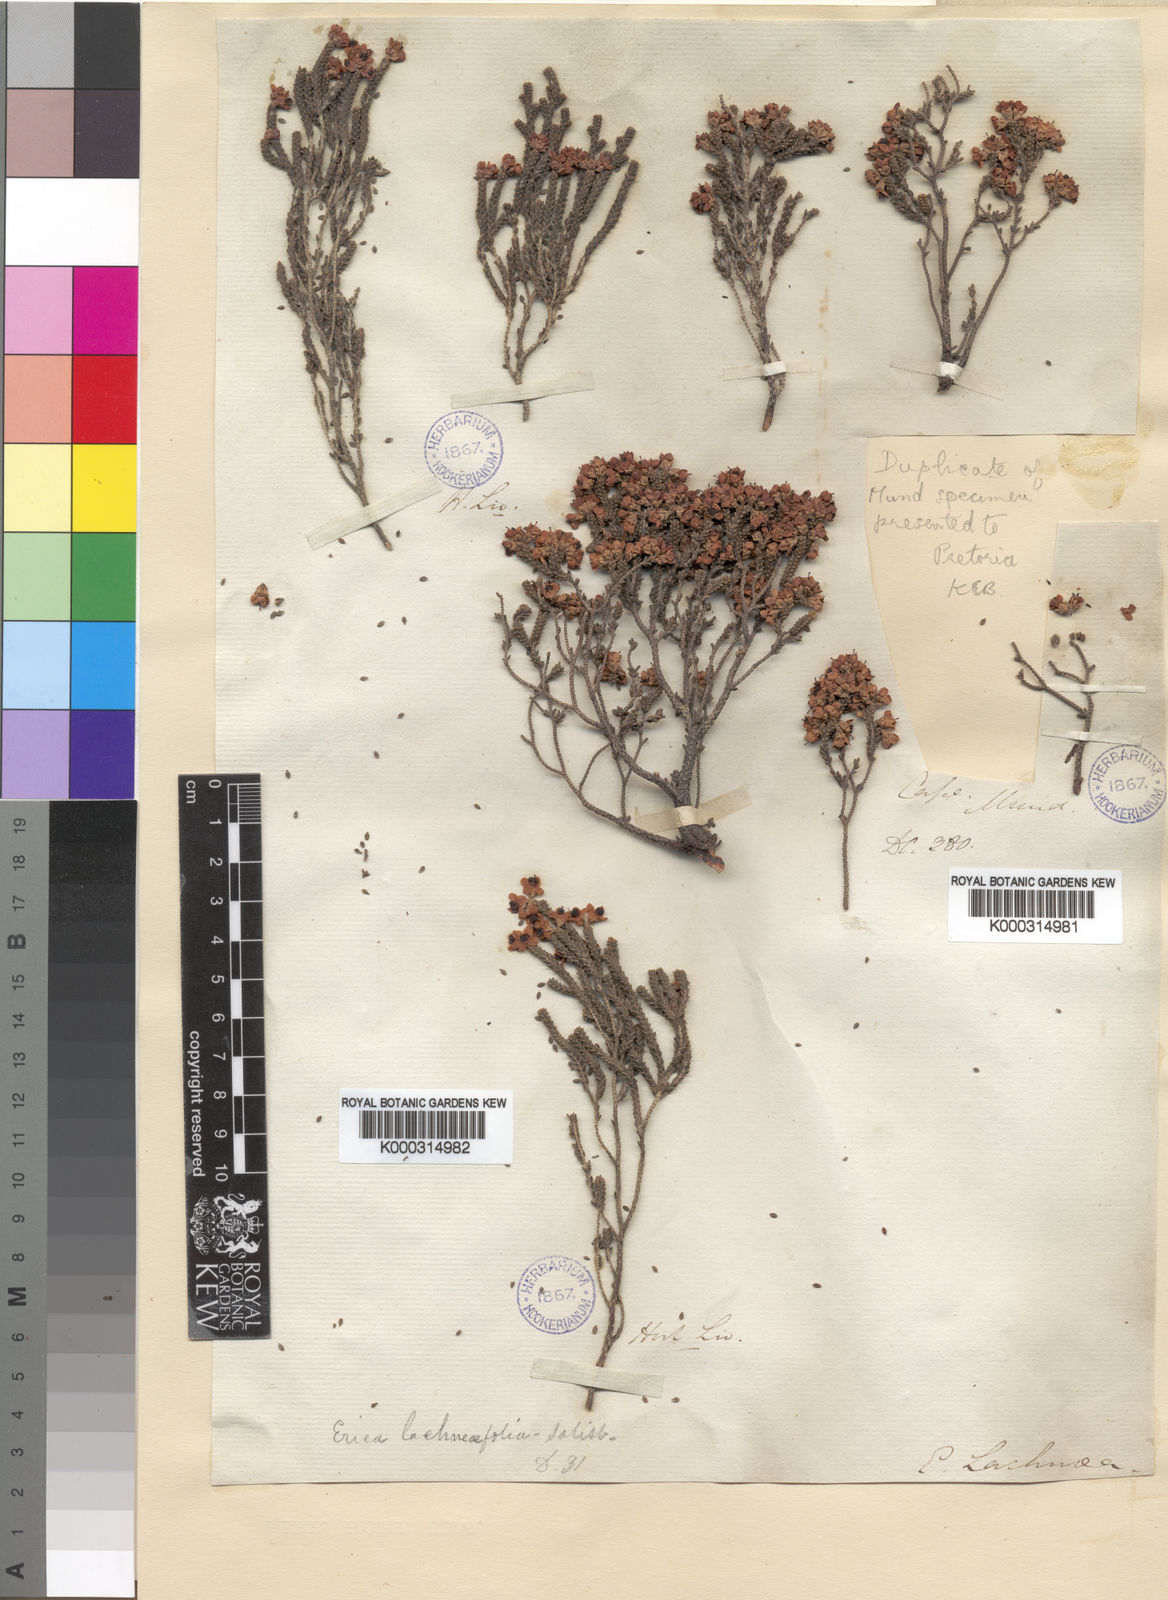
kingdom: Plantae
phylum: Tracheophyta
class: Magnoliopsida
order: Ericales
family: Ericaceae
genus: Erica
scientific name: Erica lachnaeifolia
